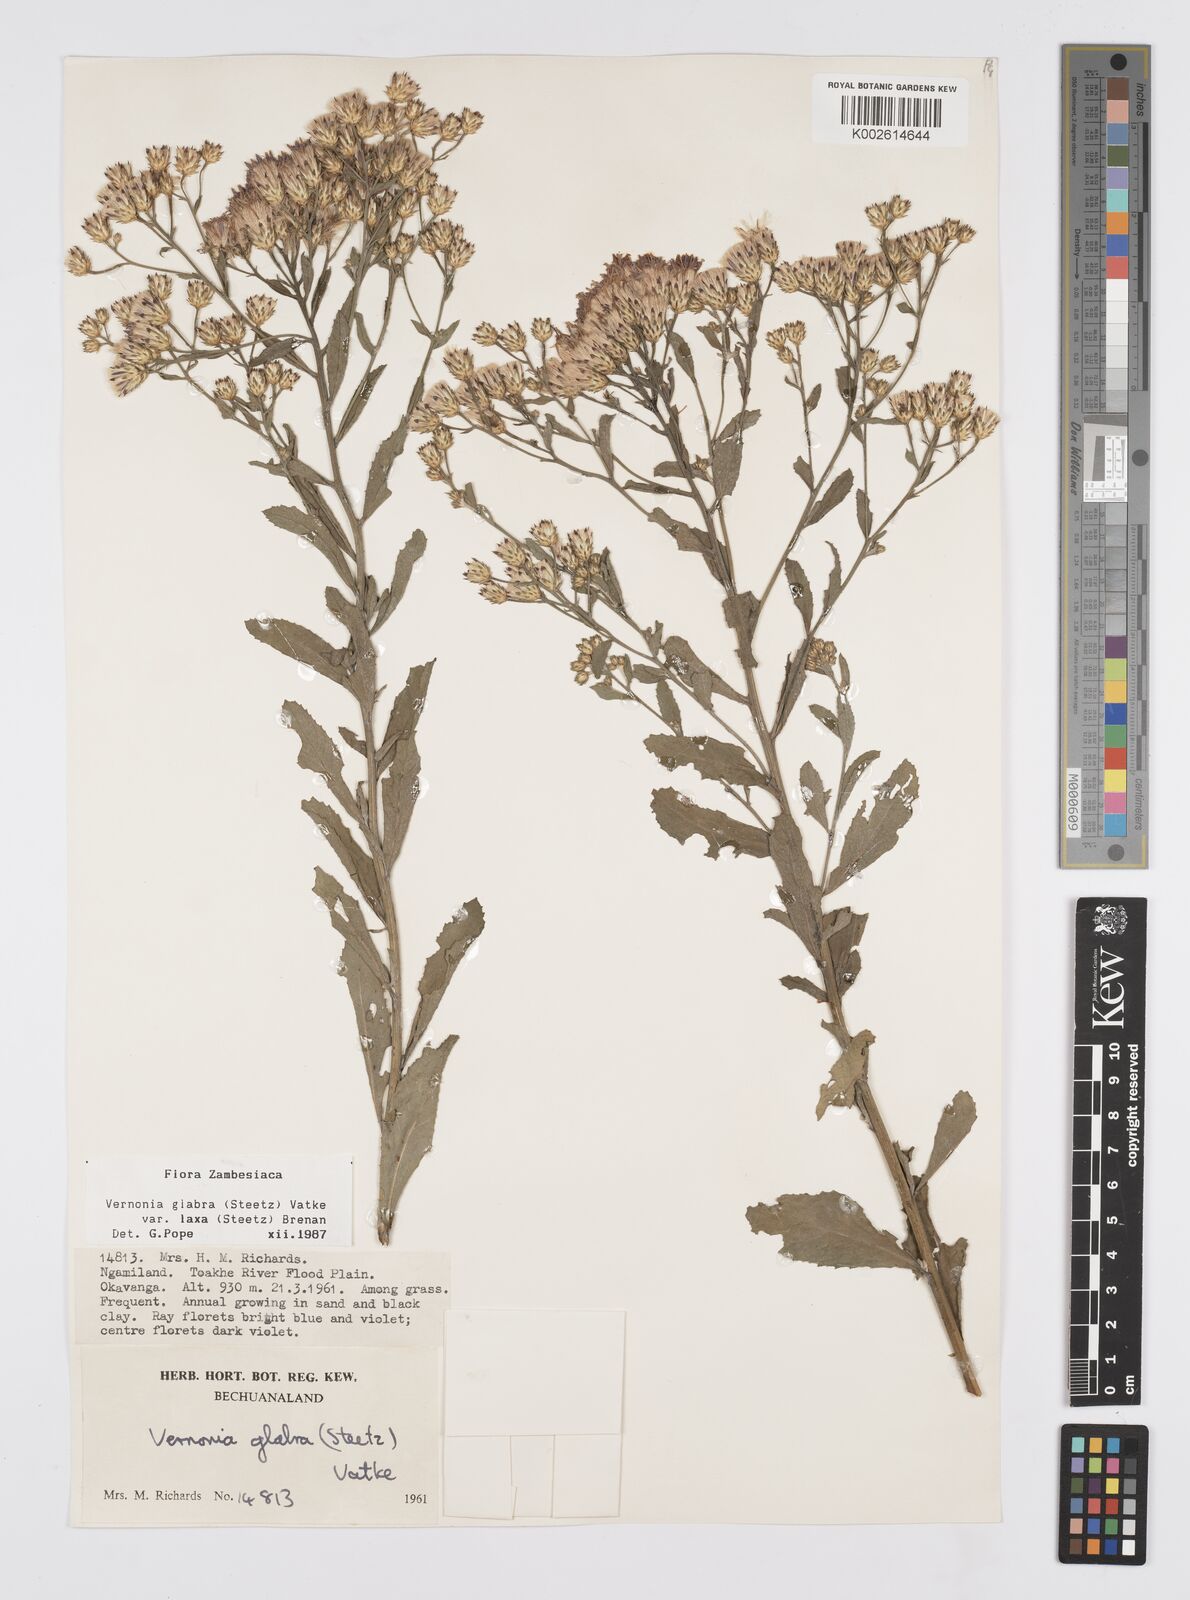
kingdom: Plantae
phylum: Tracheophyta
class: Magnoliopsida
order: Asterales
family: Asteraceae
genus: Linzia
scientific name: Linzia glabra
